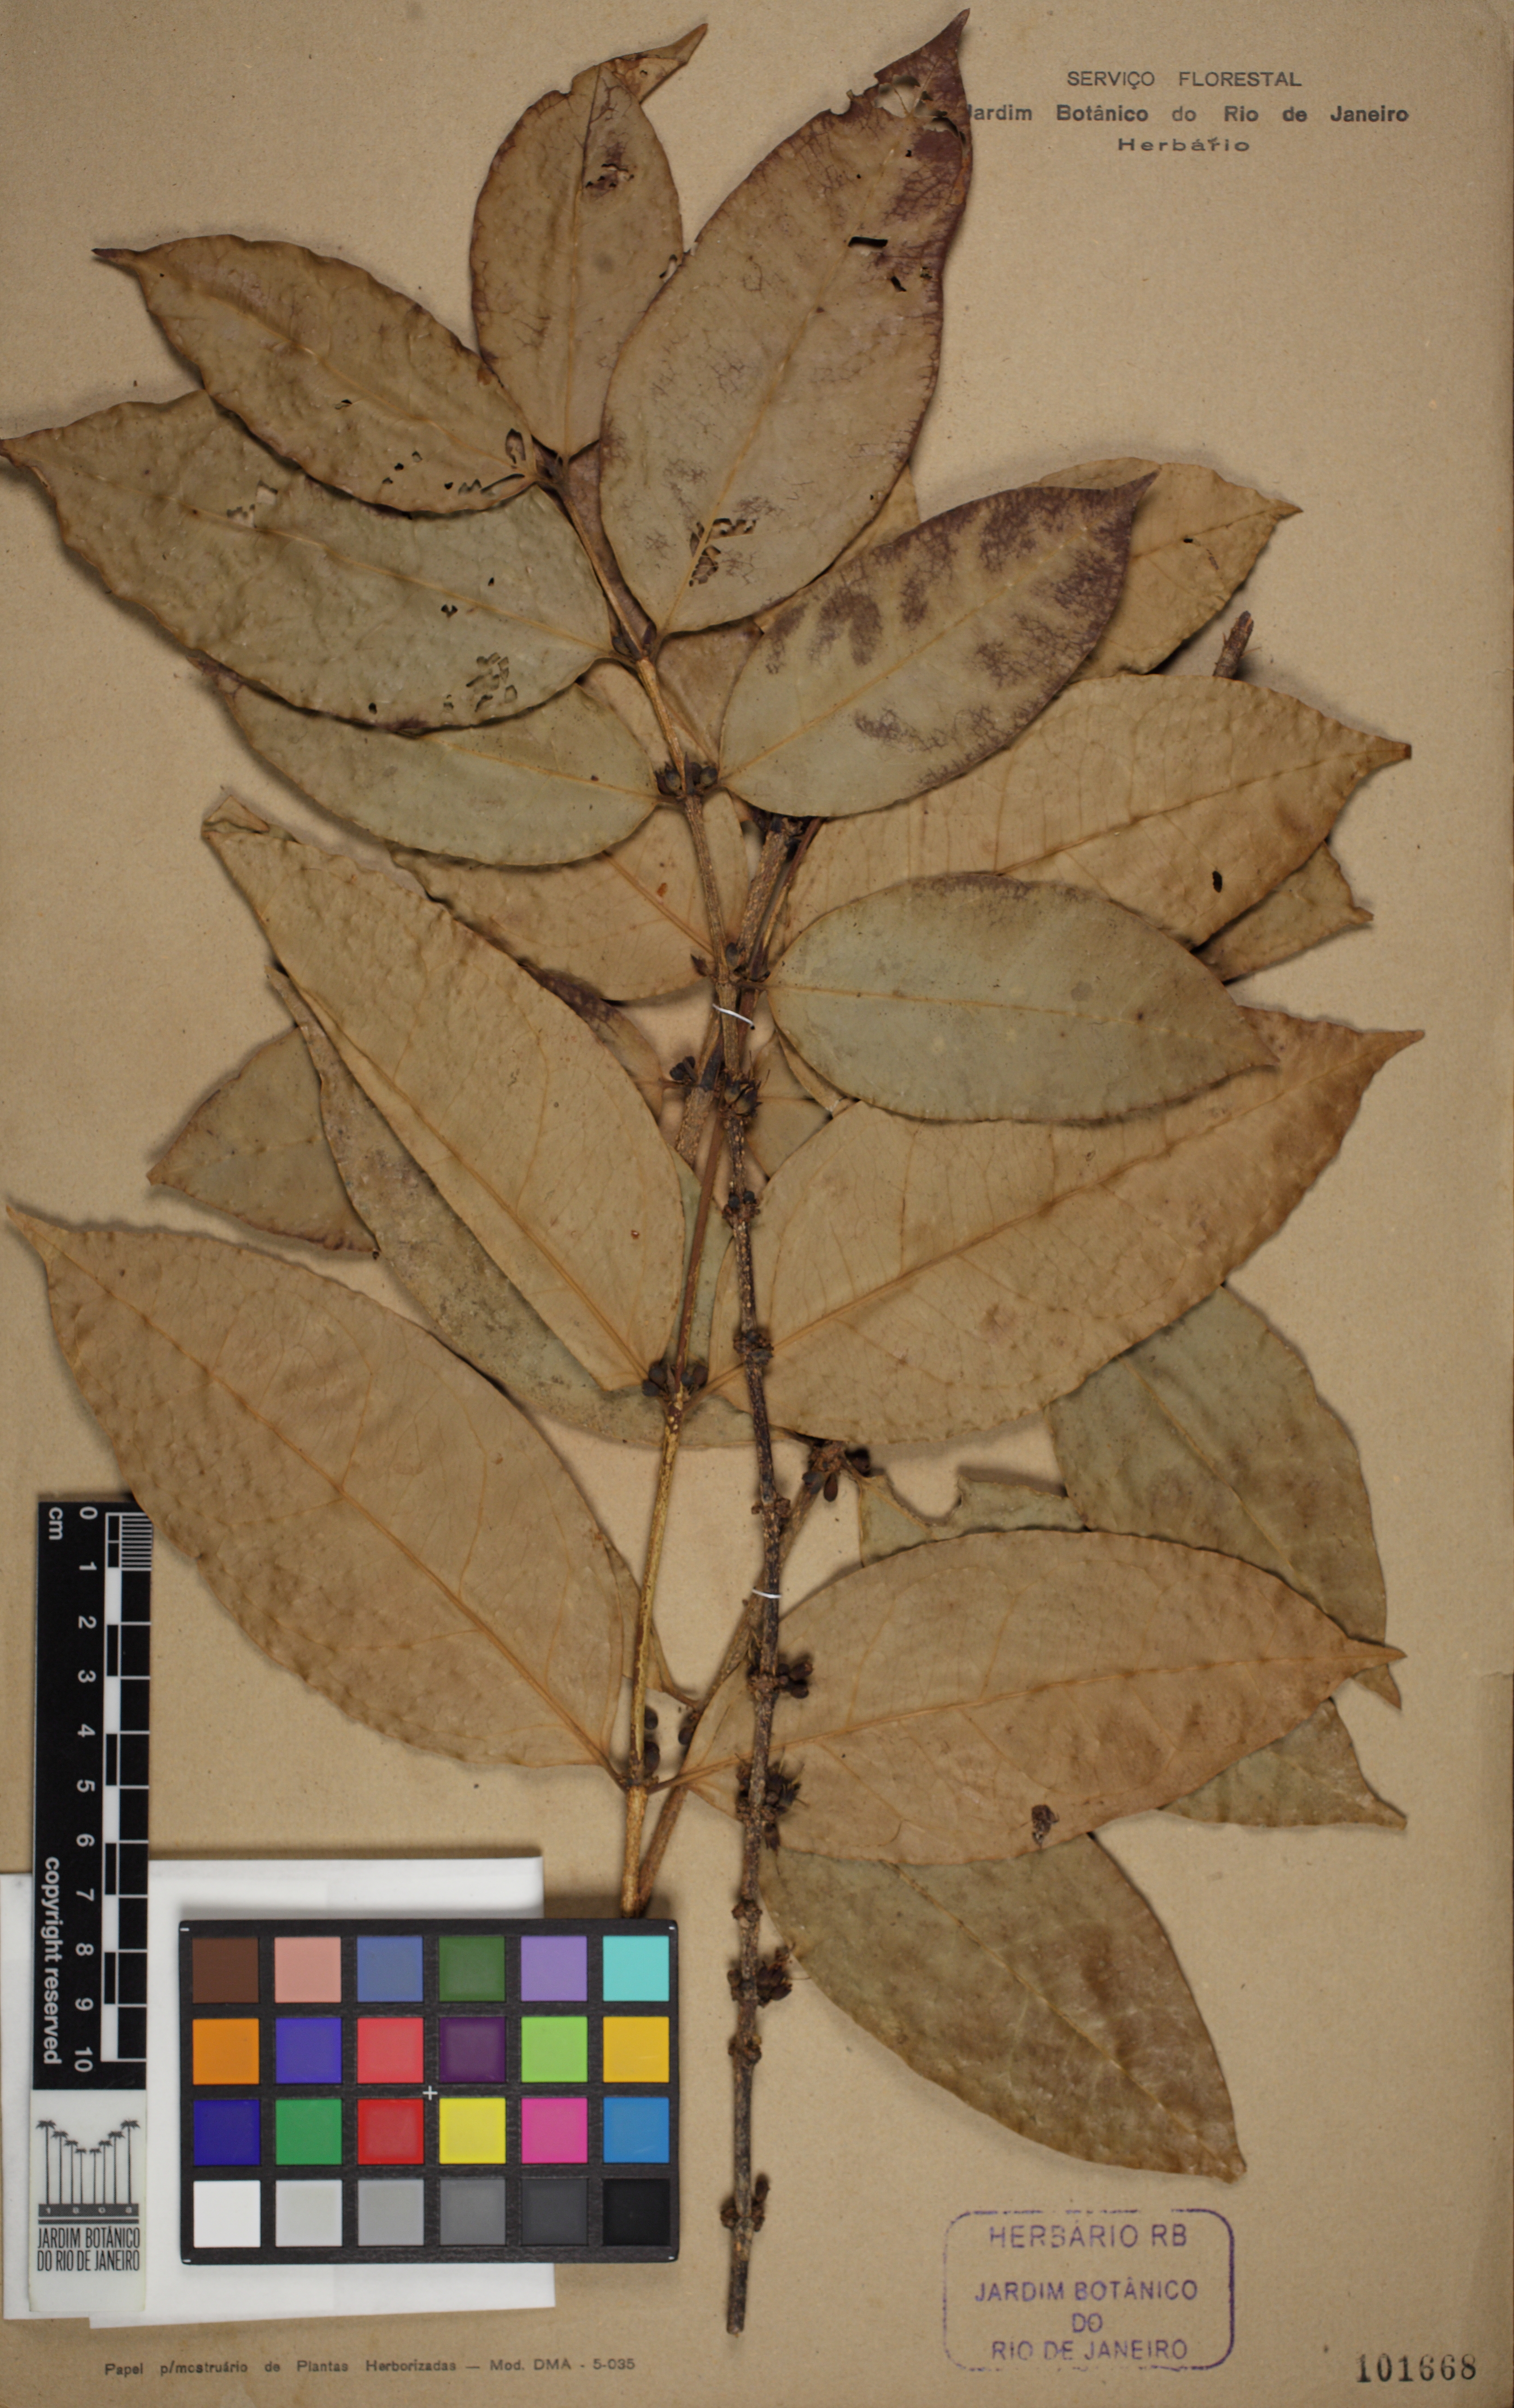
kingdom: Plantae
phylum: Tracheophyta
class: Magnoliopsida
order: Malpighiales
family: Rhizophoraceae
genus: Cassipourea
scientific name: Cassipourea
